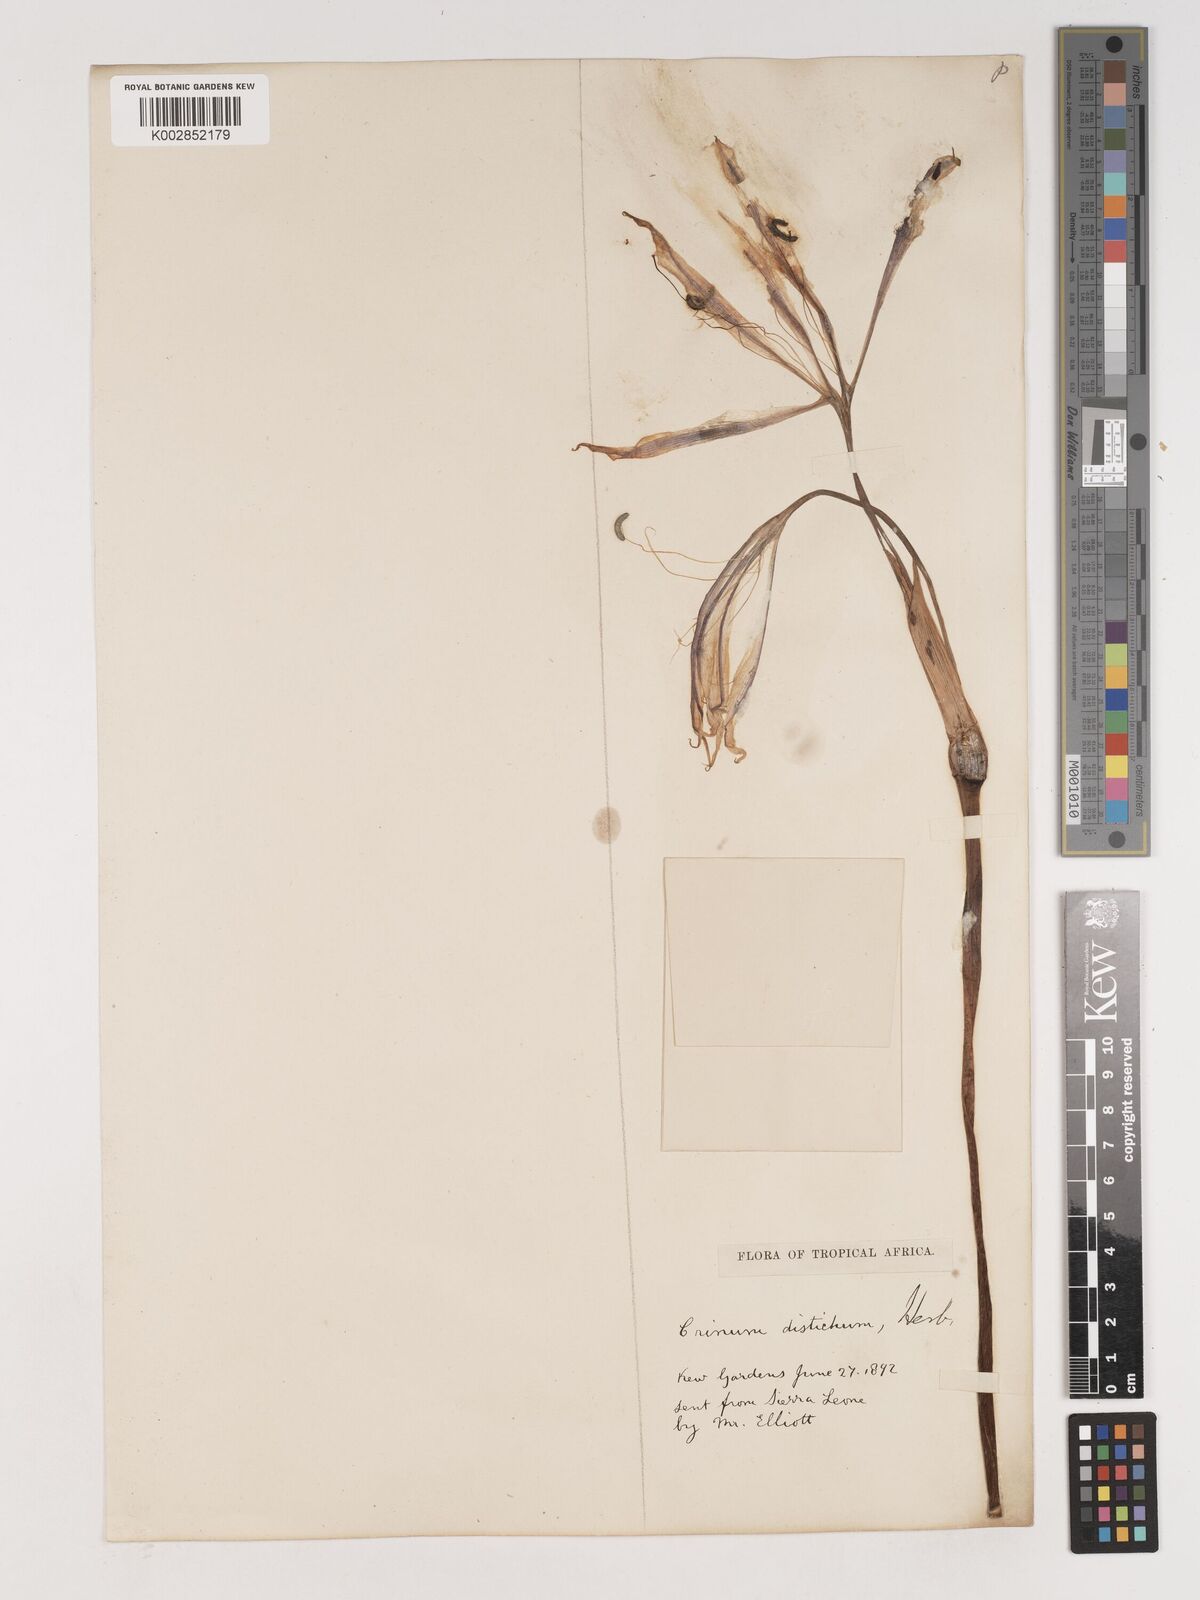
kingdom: Plantae
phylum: Tracheophyta
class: Liliopsida
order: Asparagales
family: Amaryllidaceae
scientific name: Amaryllidaceae
